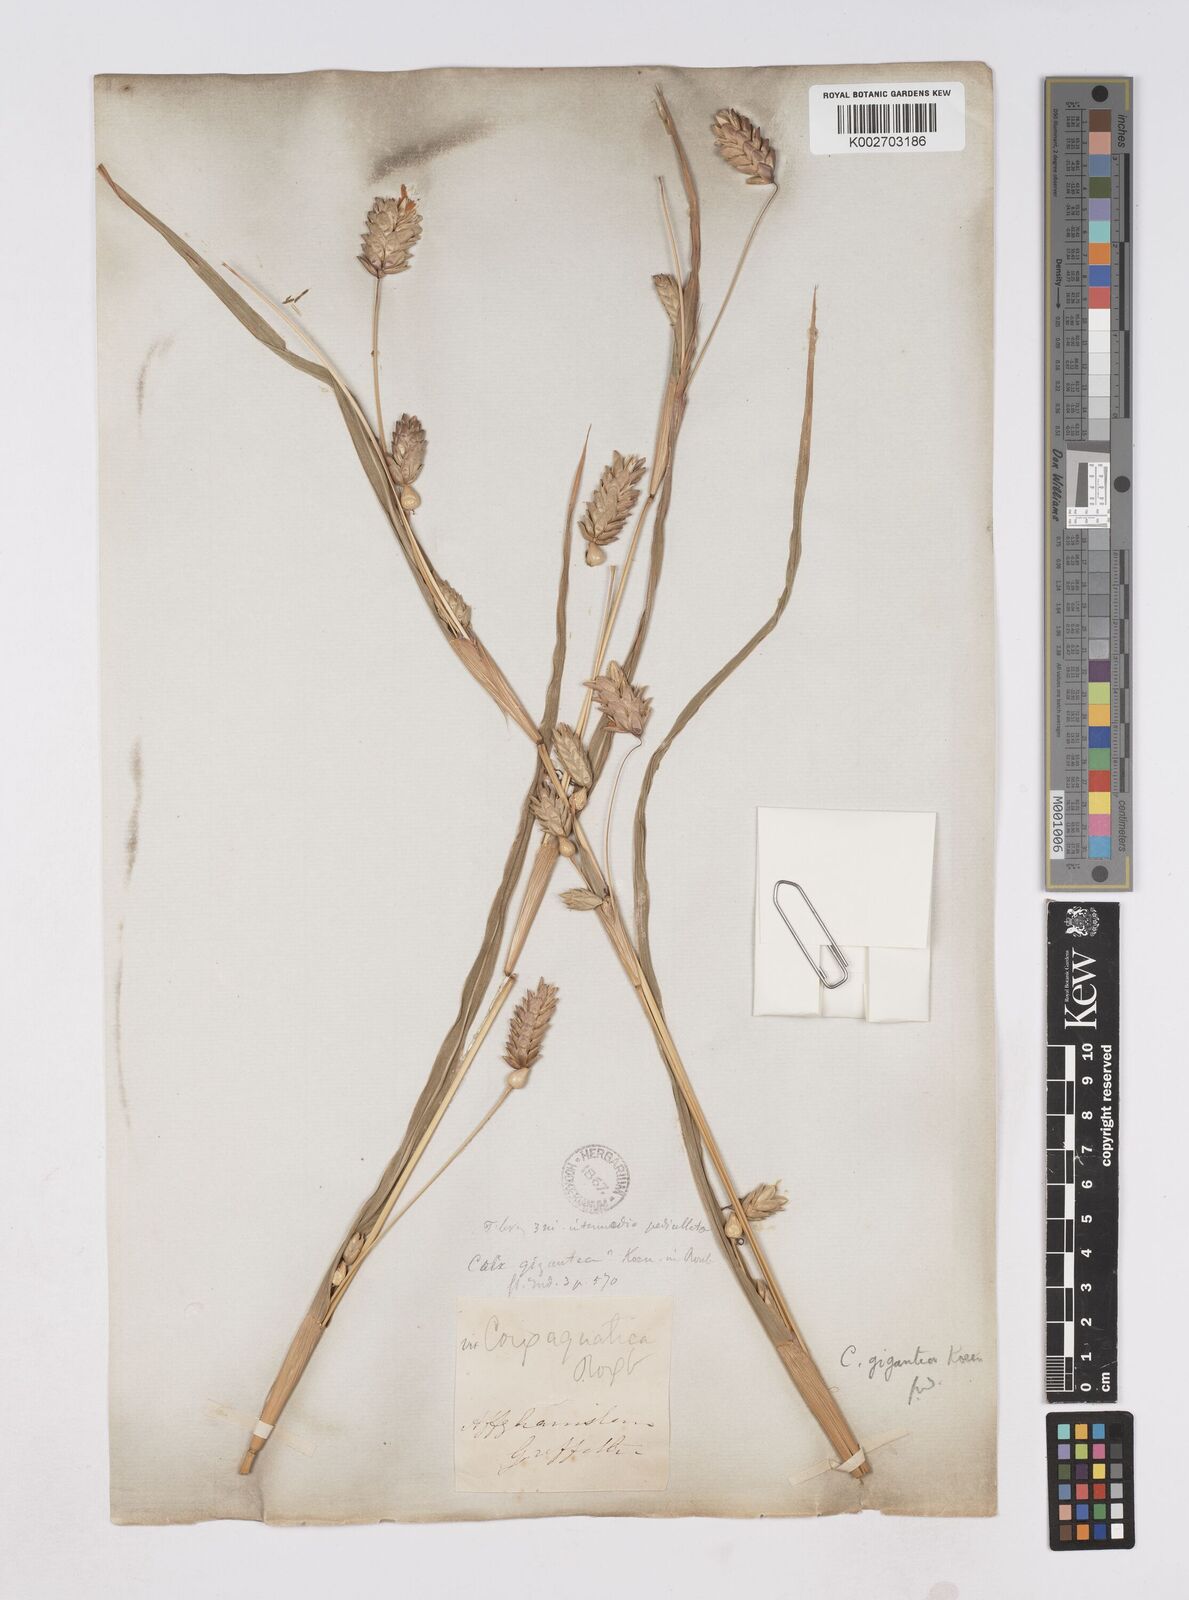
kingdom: Plantae
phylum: Tracheophyta
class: Liliopsida
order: Poales
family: Poaceae
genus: Coix
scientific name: Coix aquatica
